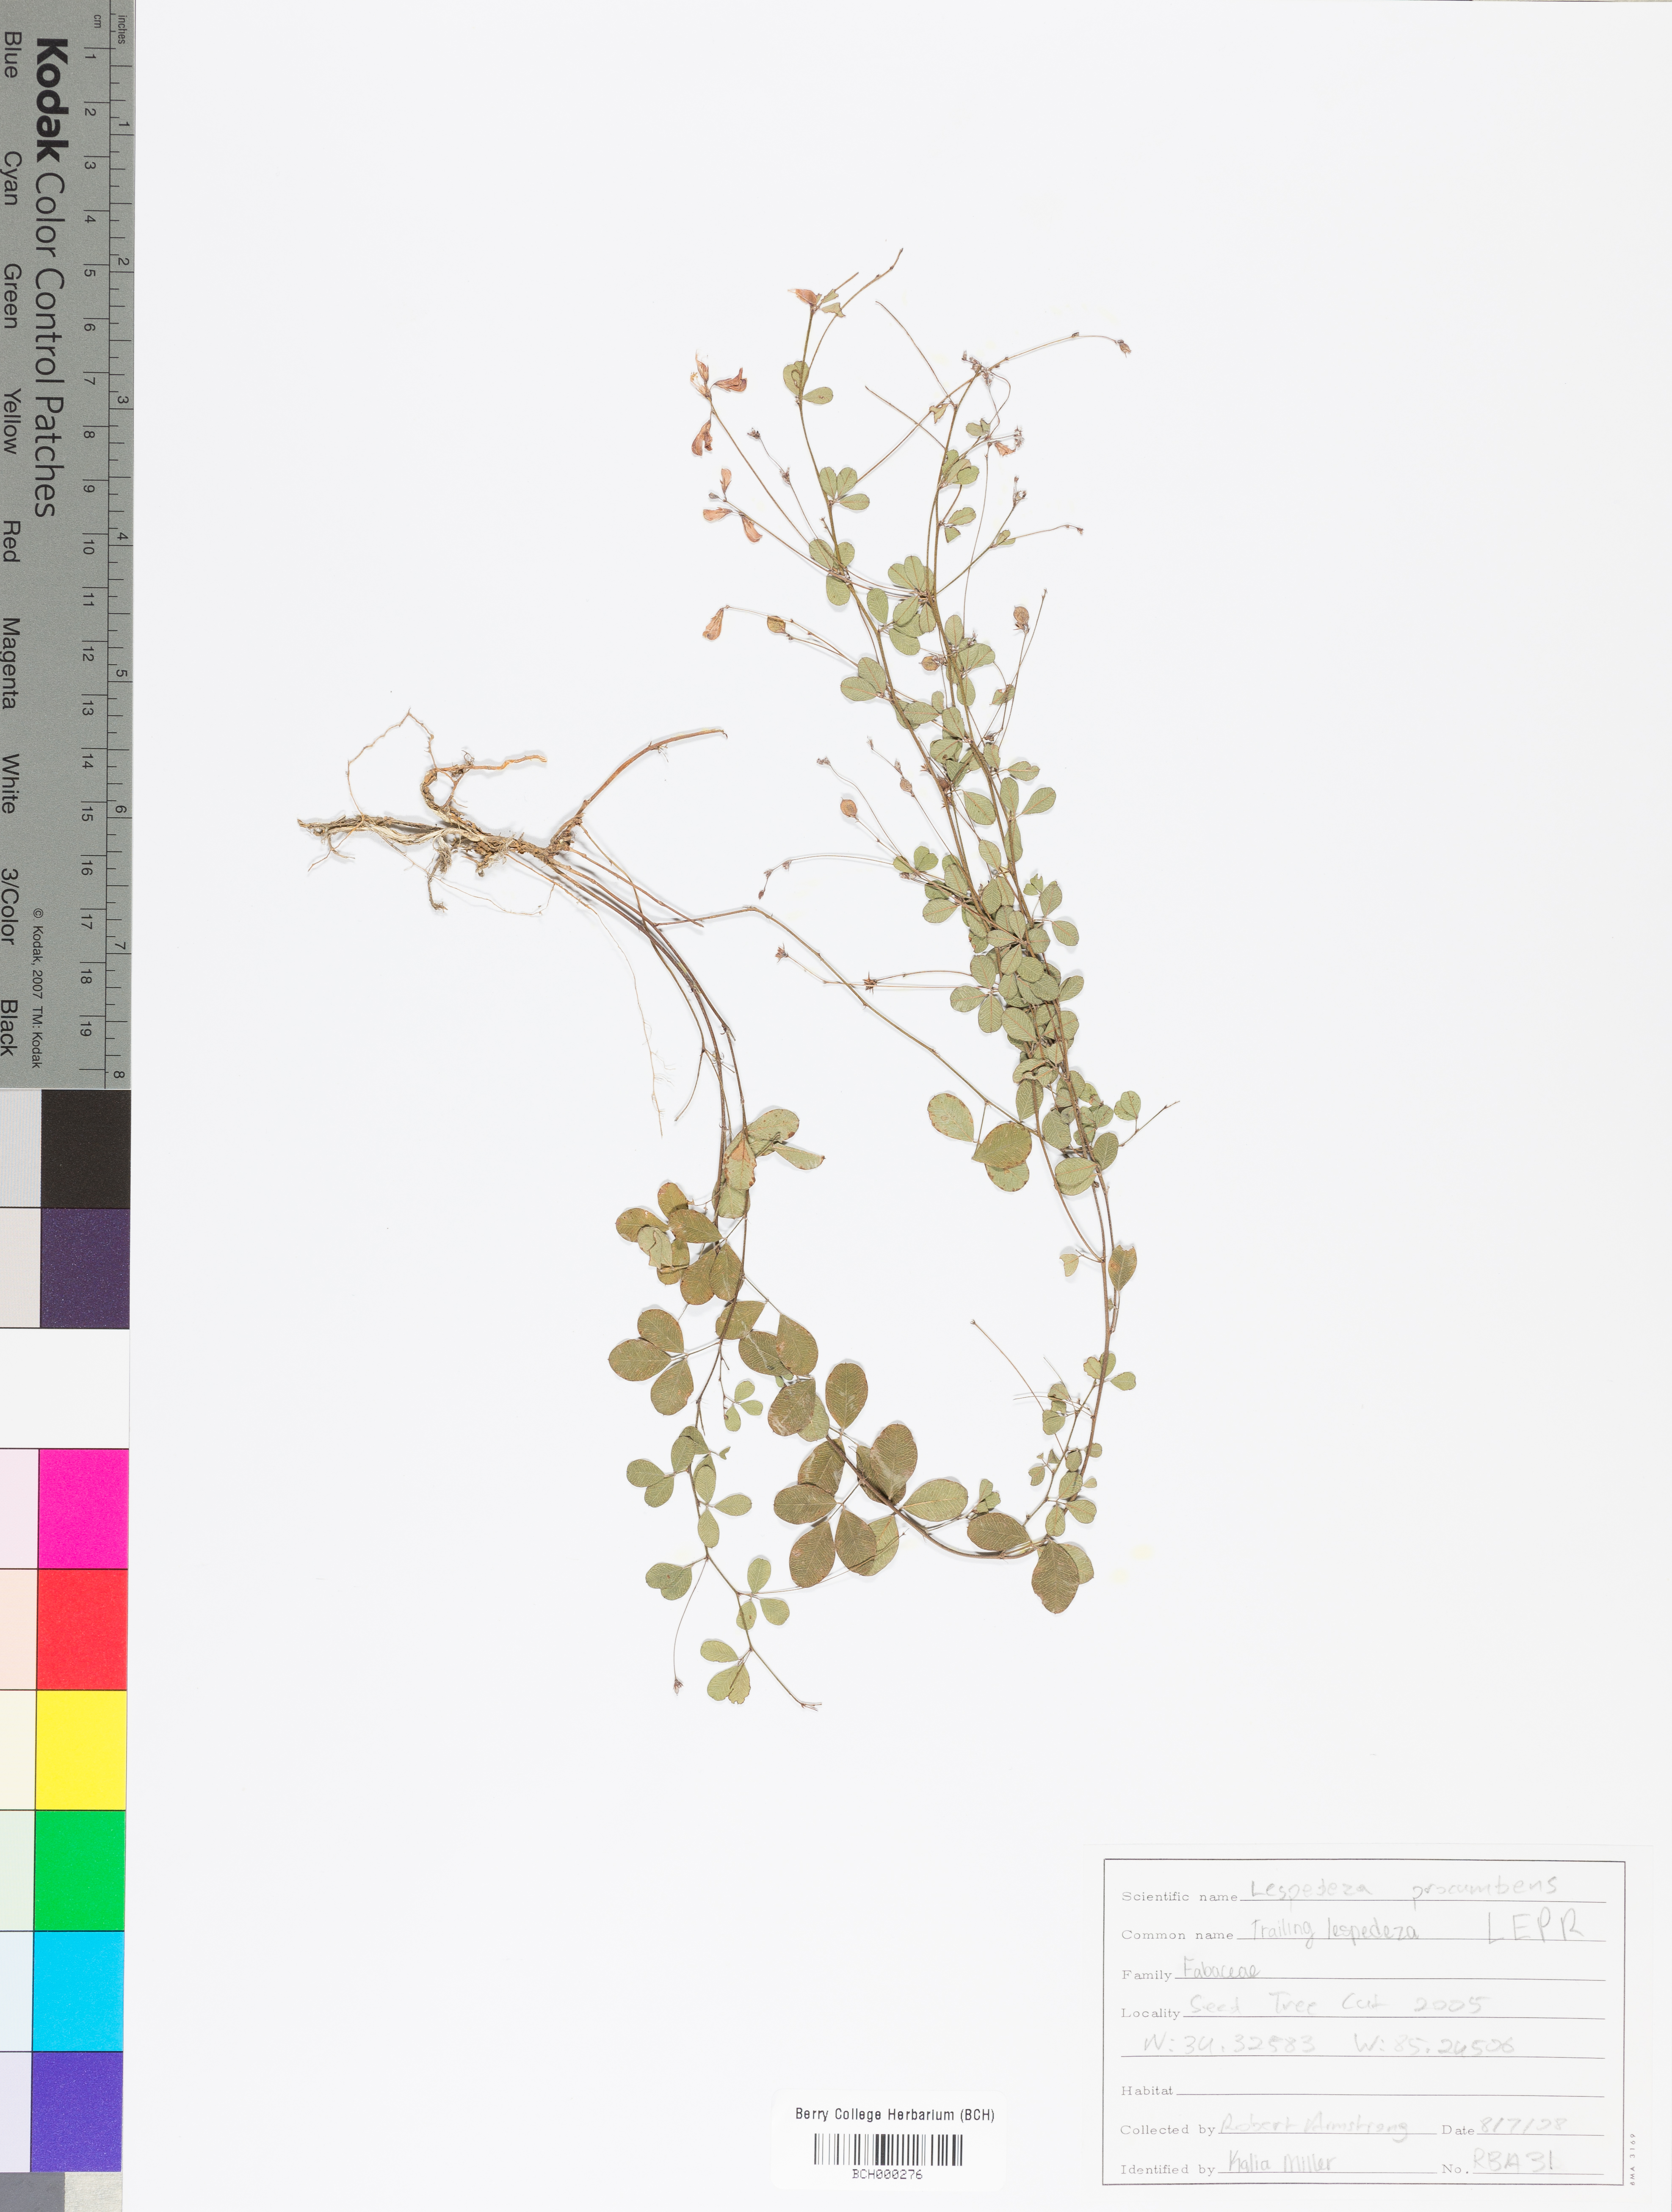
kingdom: Plantae
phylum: Tracheophyta
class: Magnoliopsida
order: Fabales
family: Fabaceae
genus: Lespedeza
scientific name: Lespedeza procumbens
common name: Downy trailing bush-clover
